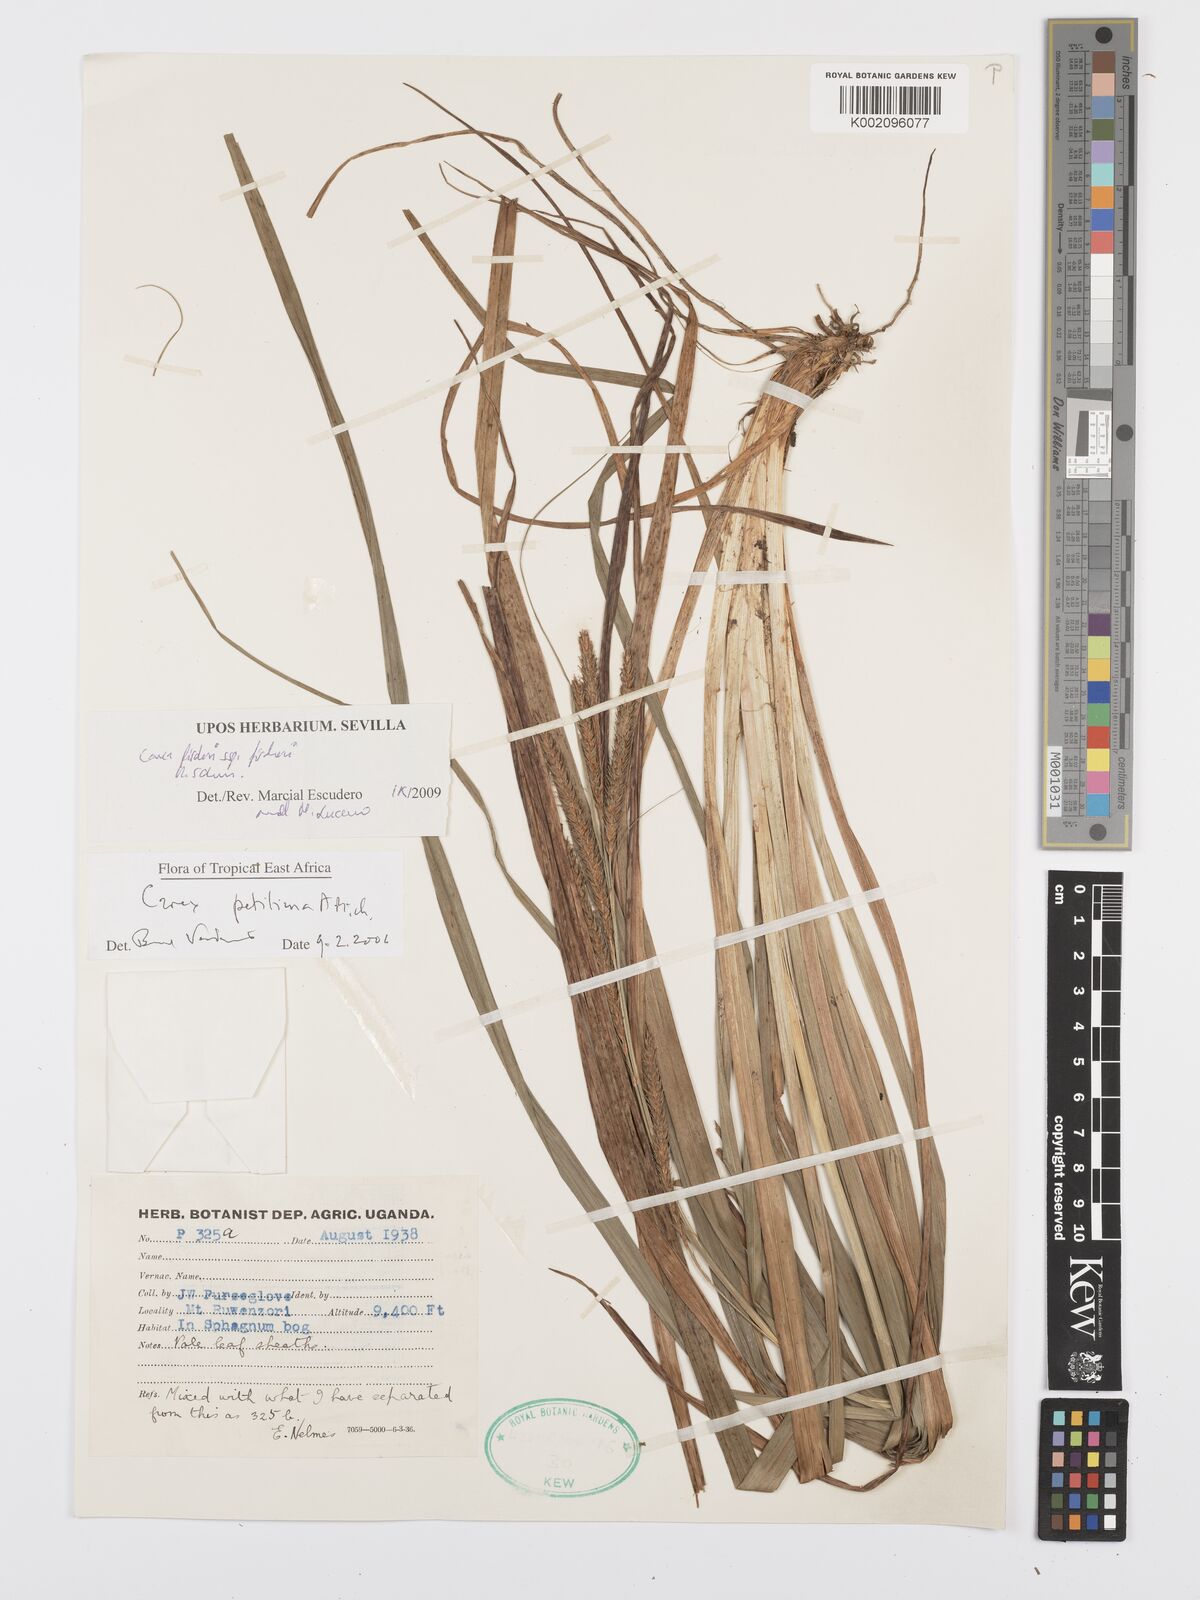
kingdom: Plantae
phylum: Tracheophyta
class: Liliopsida
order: Poales
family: Cyperaceae
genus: Carex
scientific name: Carex fischeri
